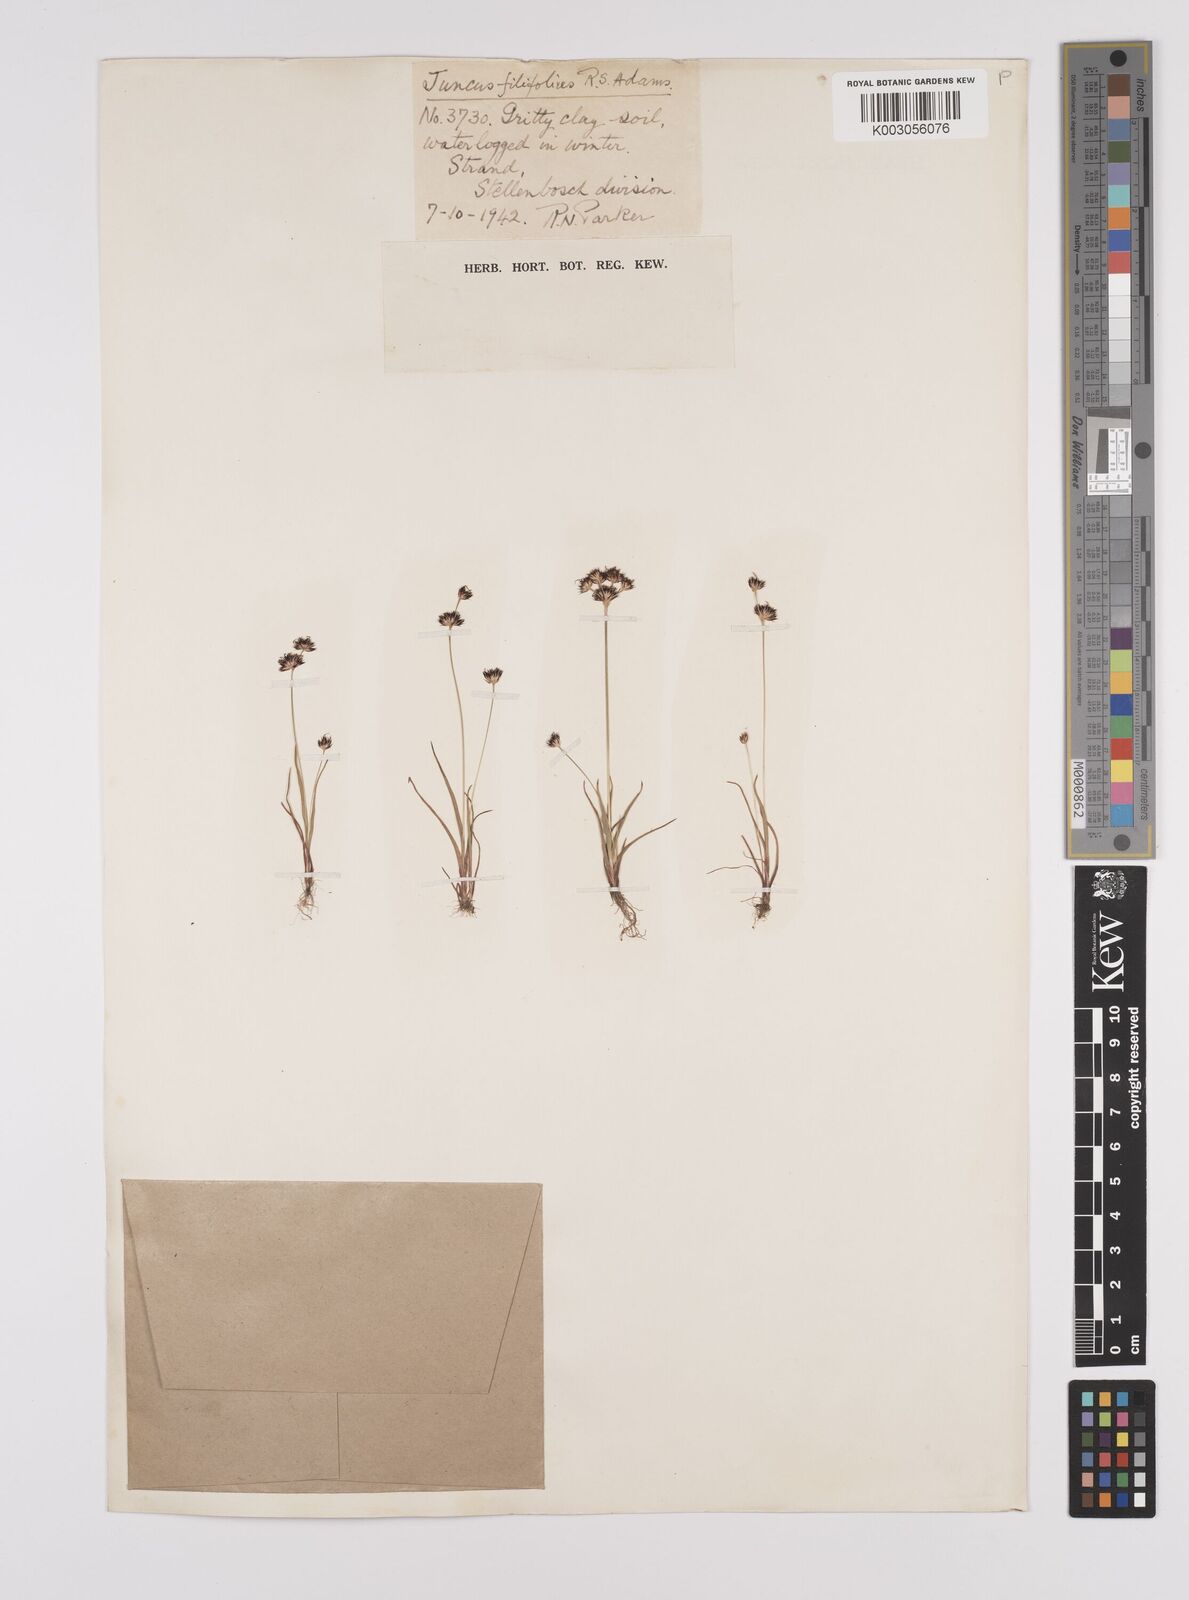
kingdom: Plantae
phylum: Tracheophyta
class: Liliopsida
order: Poales
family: Juncaceae
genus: Juncus
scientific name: Juncus cephalotes
